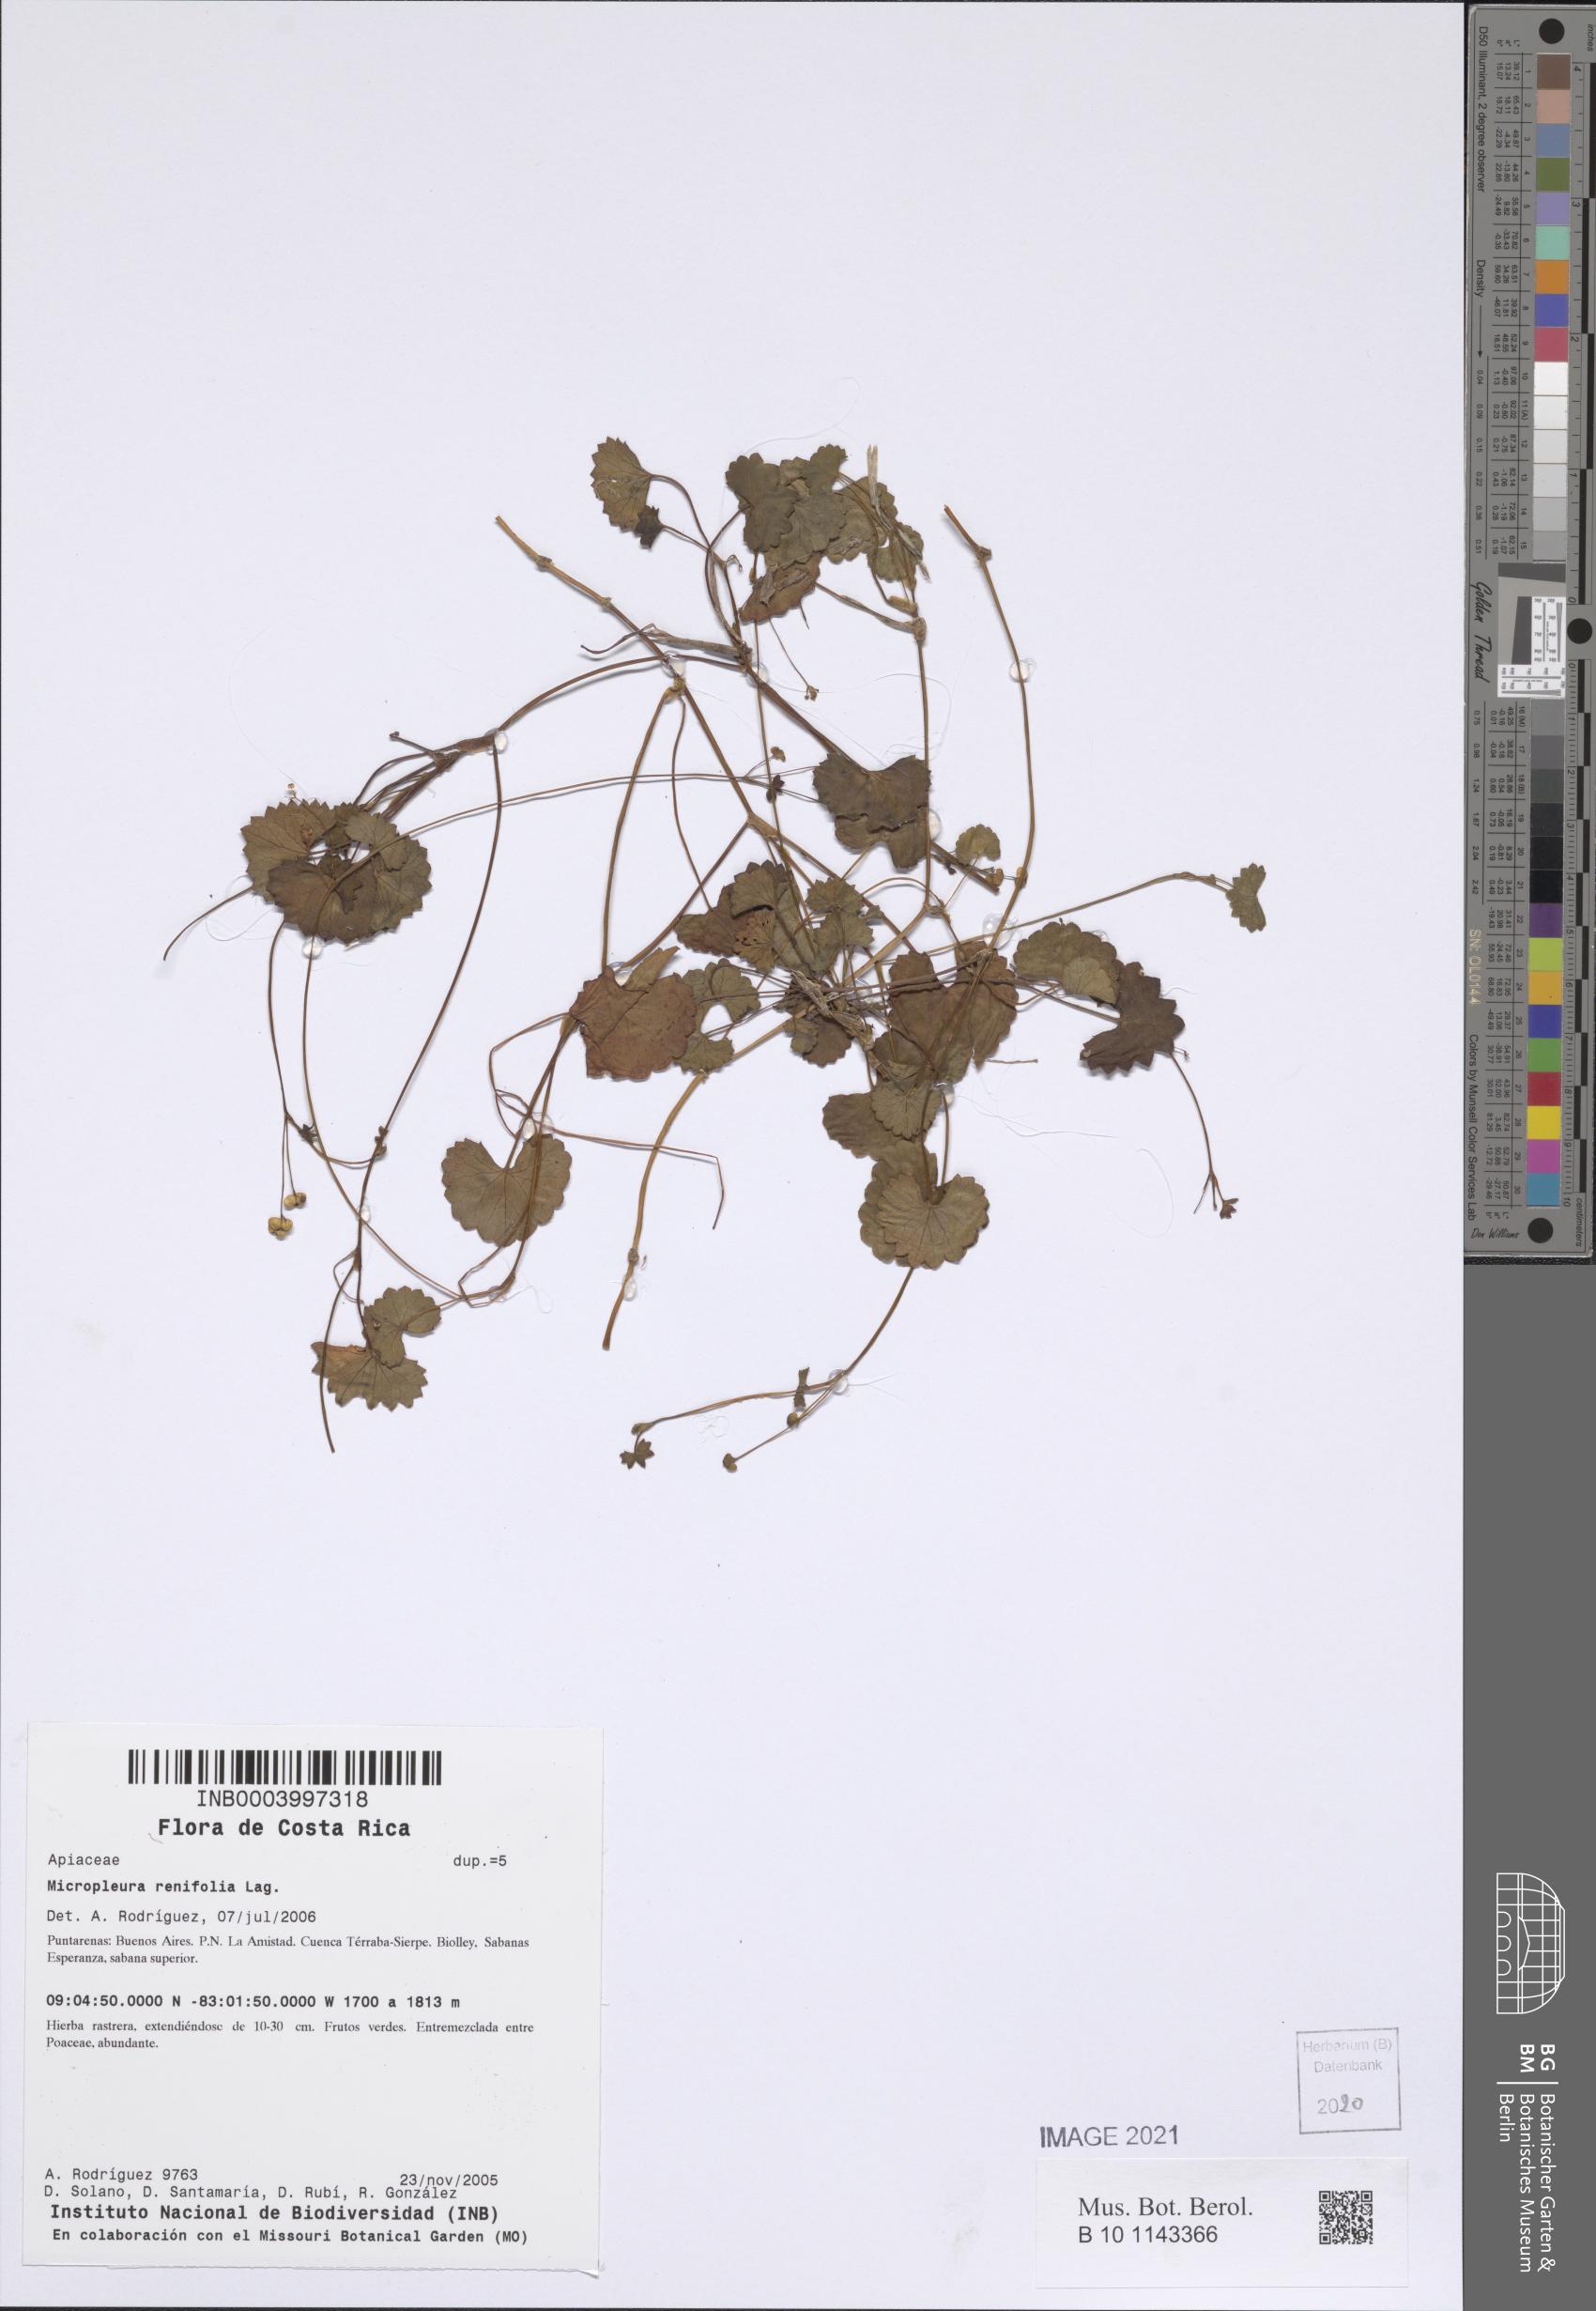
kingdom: Plantae
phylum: Tracheophyta
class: Magnoliopsida
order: Apiales
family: Apiaceae
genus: Micropleura
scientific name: Micropleura renifolia
